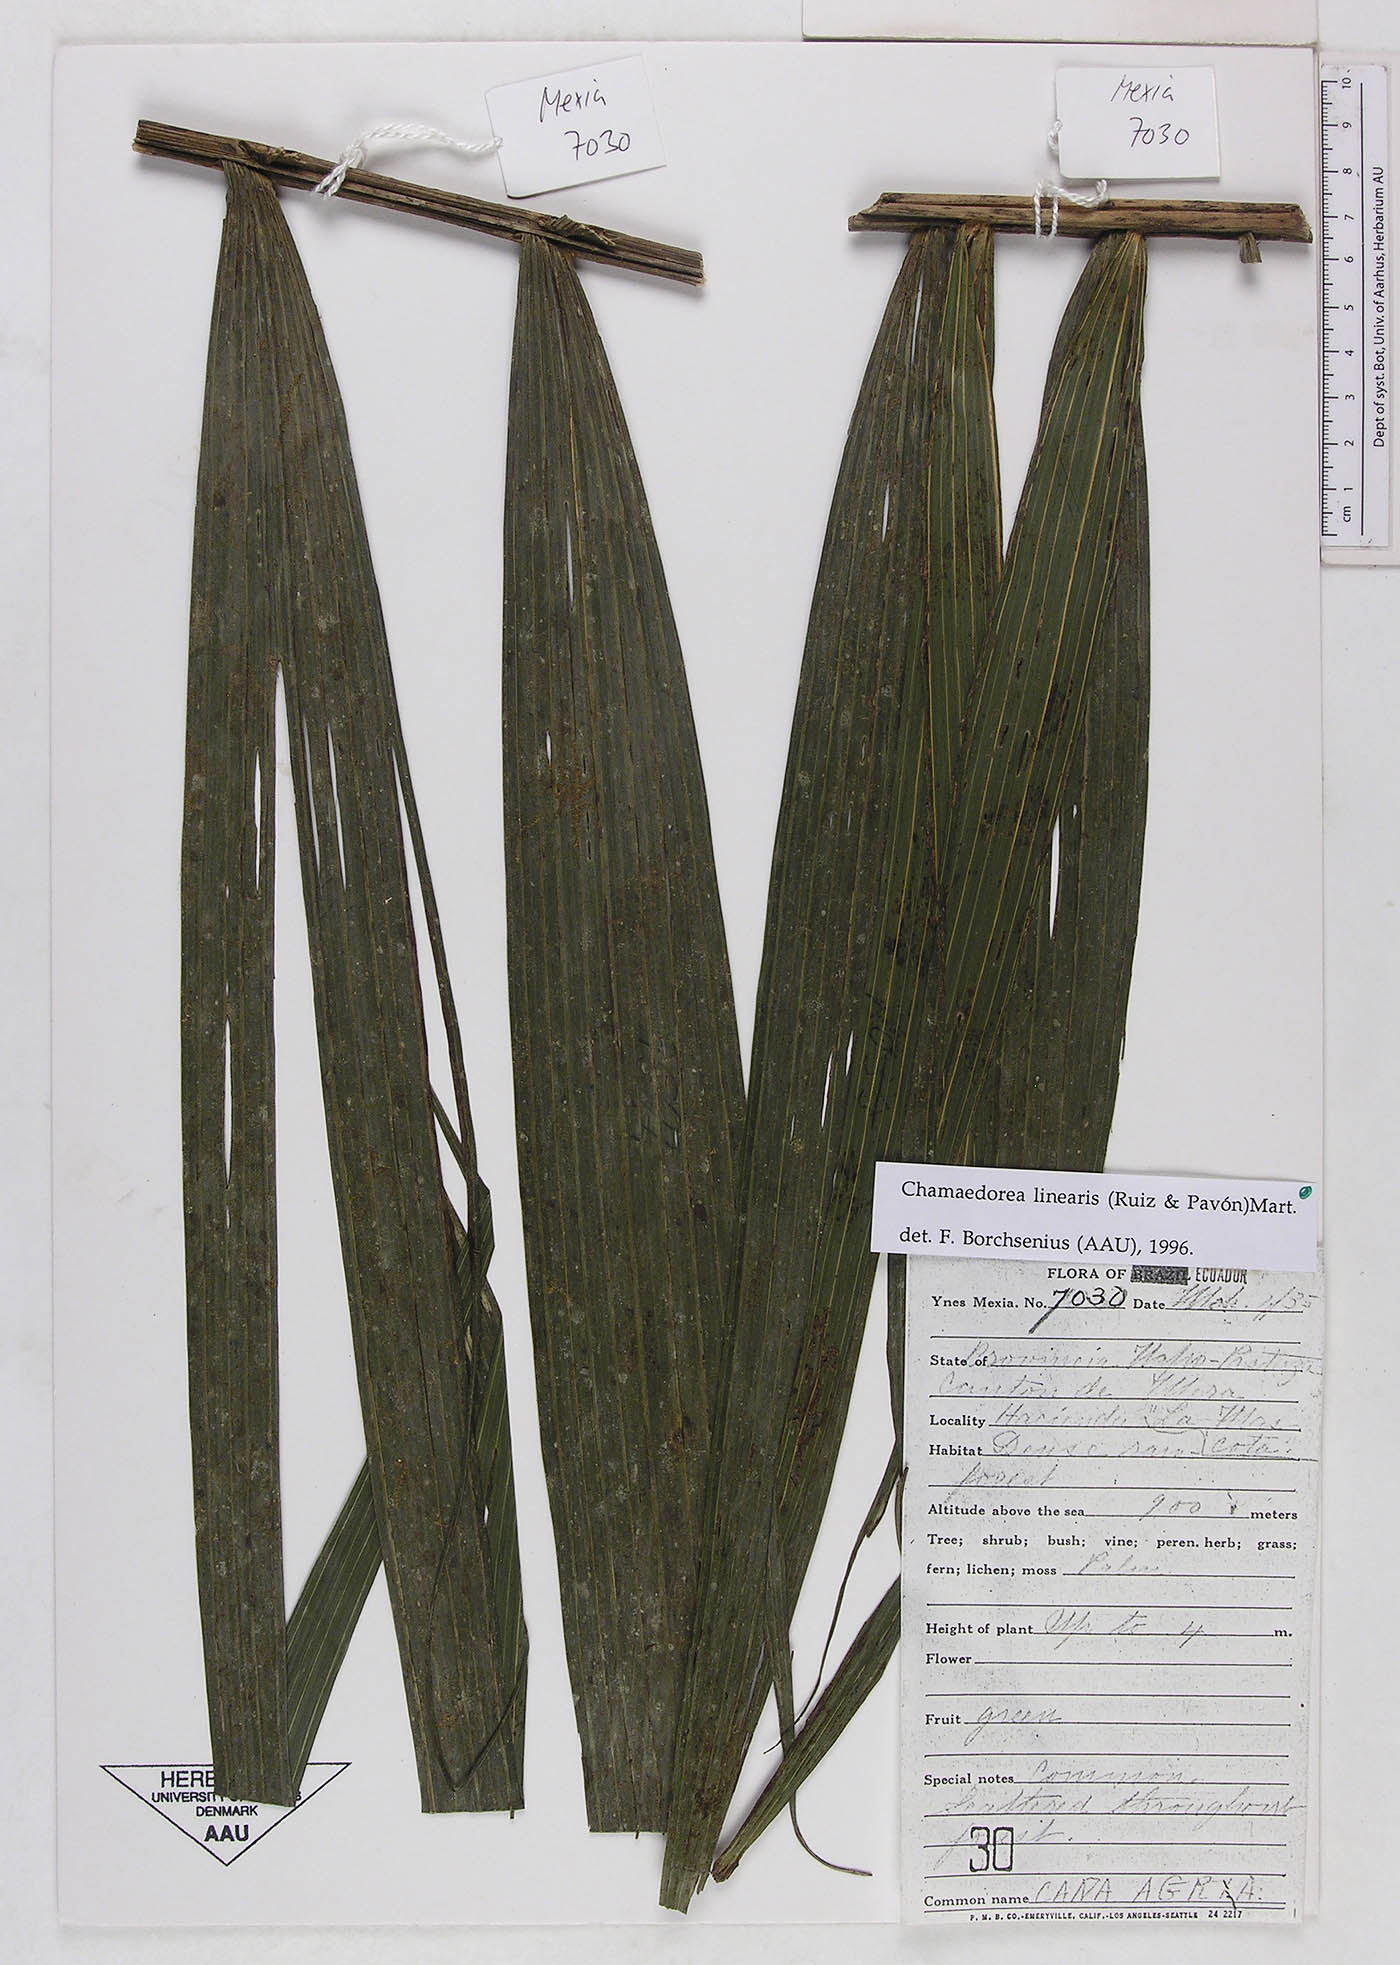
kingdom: Plantae
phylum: Tracheophyta
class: Liliopsida
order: Arecales
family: Arecaceae
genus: Chamaedorea
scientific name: Chamaedorea linearis
